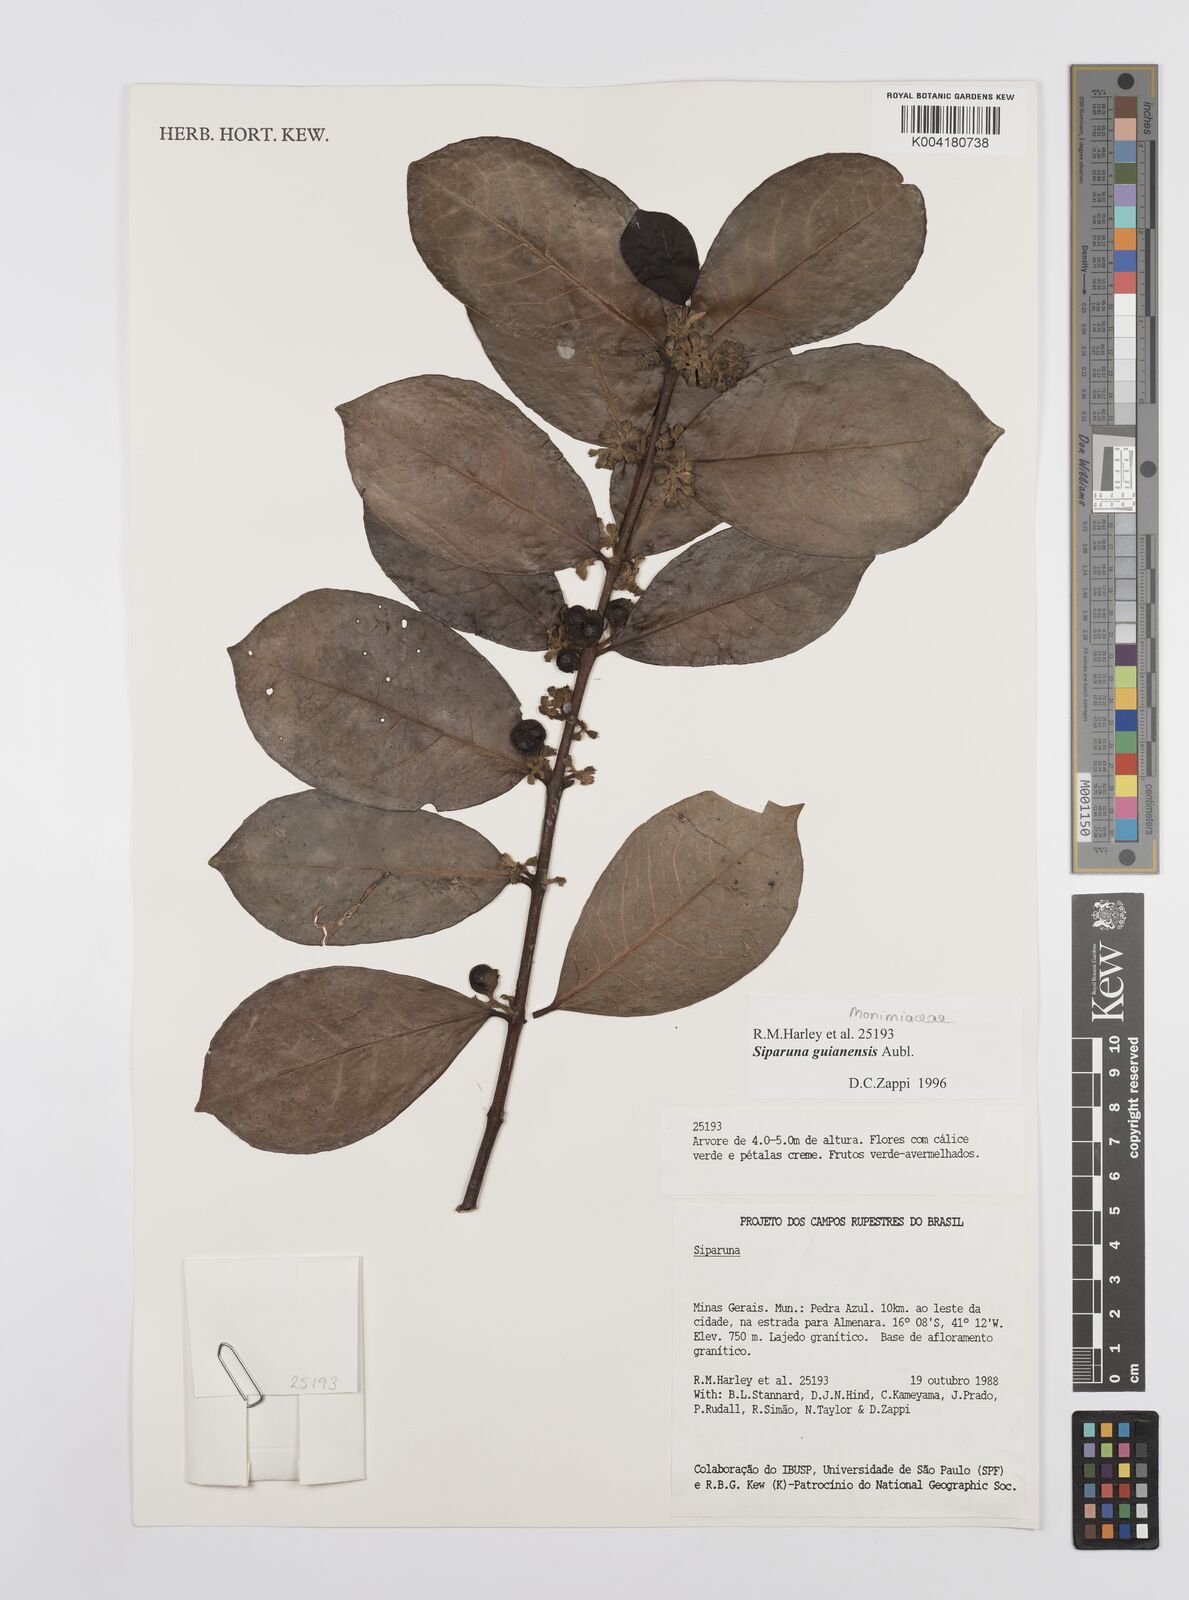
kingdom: Plantae
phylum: Tracheophyta
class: Magnoliopsida
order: Laurales
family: Siparunaceae
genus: Siparuna
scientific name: Siparuna guianensis
